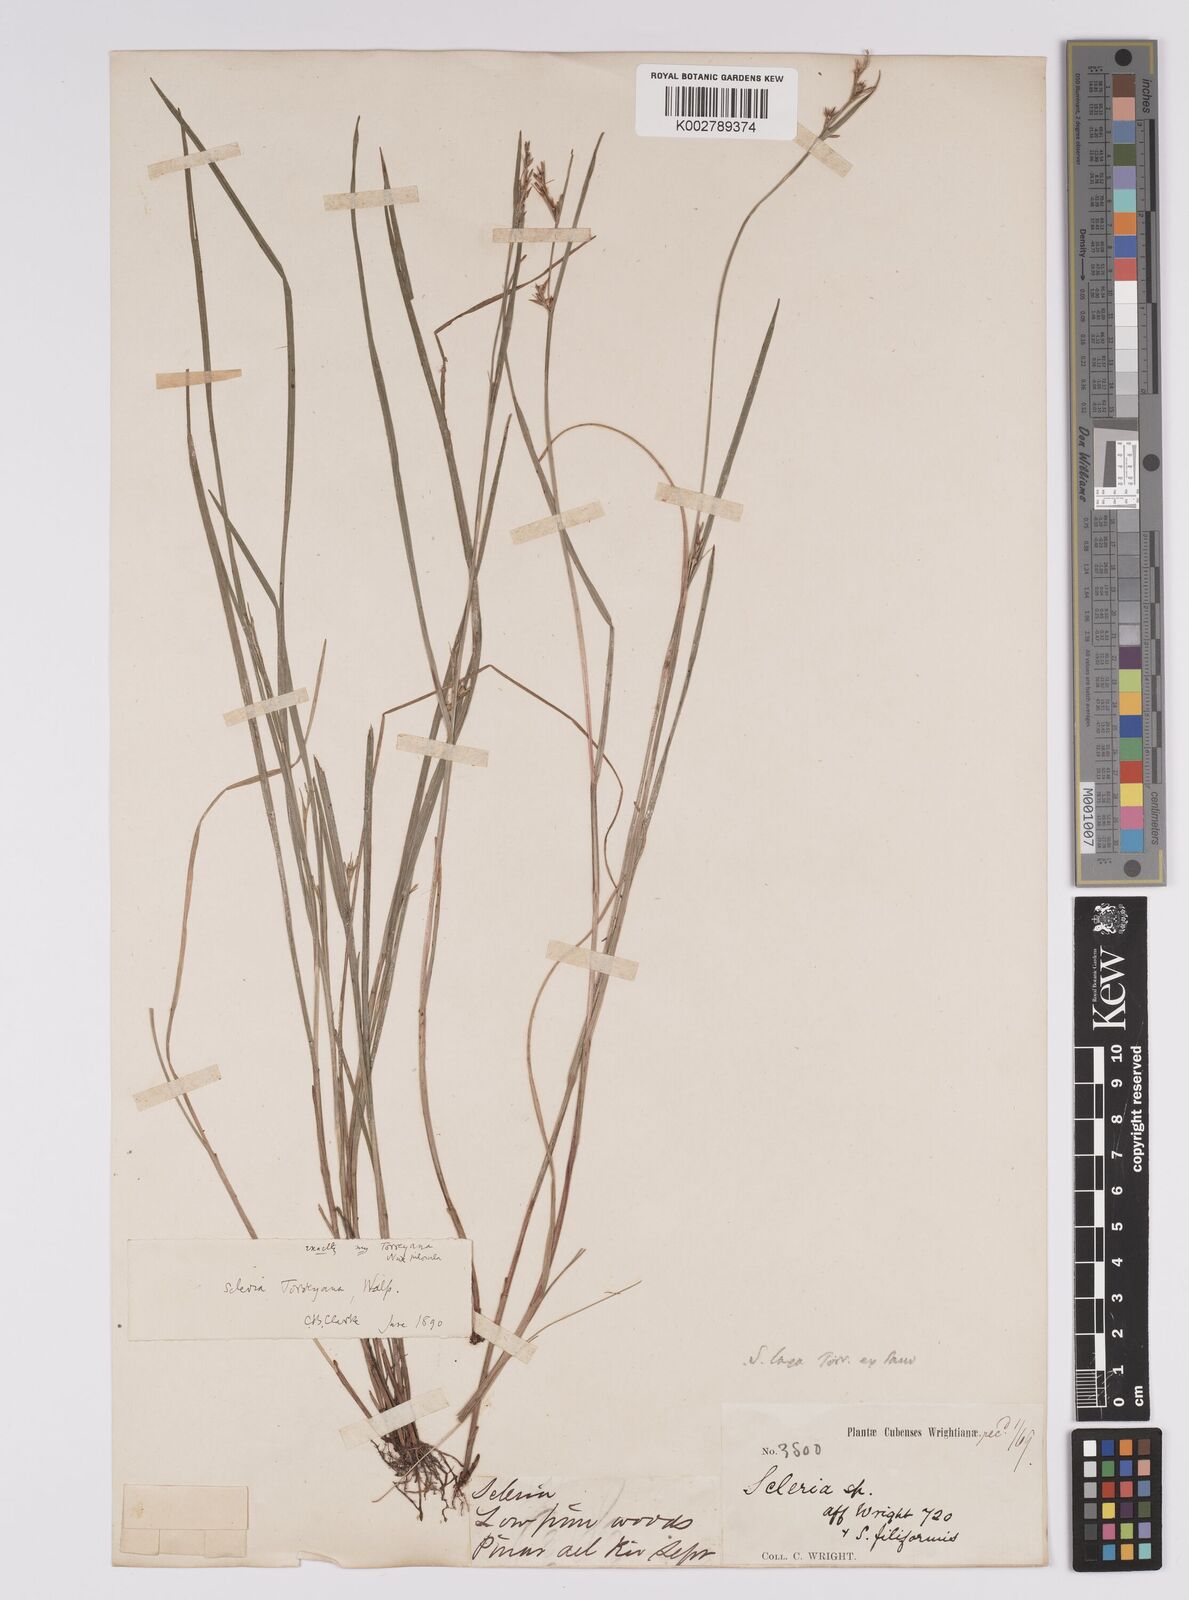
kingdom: Plantae
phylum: Tracheophyta
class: Liliopsida
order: Poales
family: Cyperaceae
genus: Scleria
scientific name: Scleria muehlenbergii
